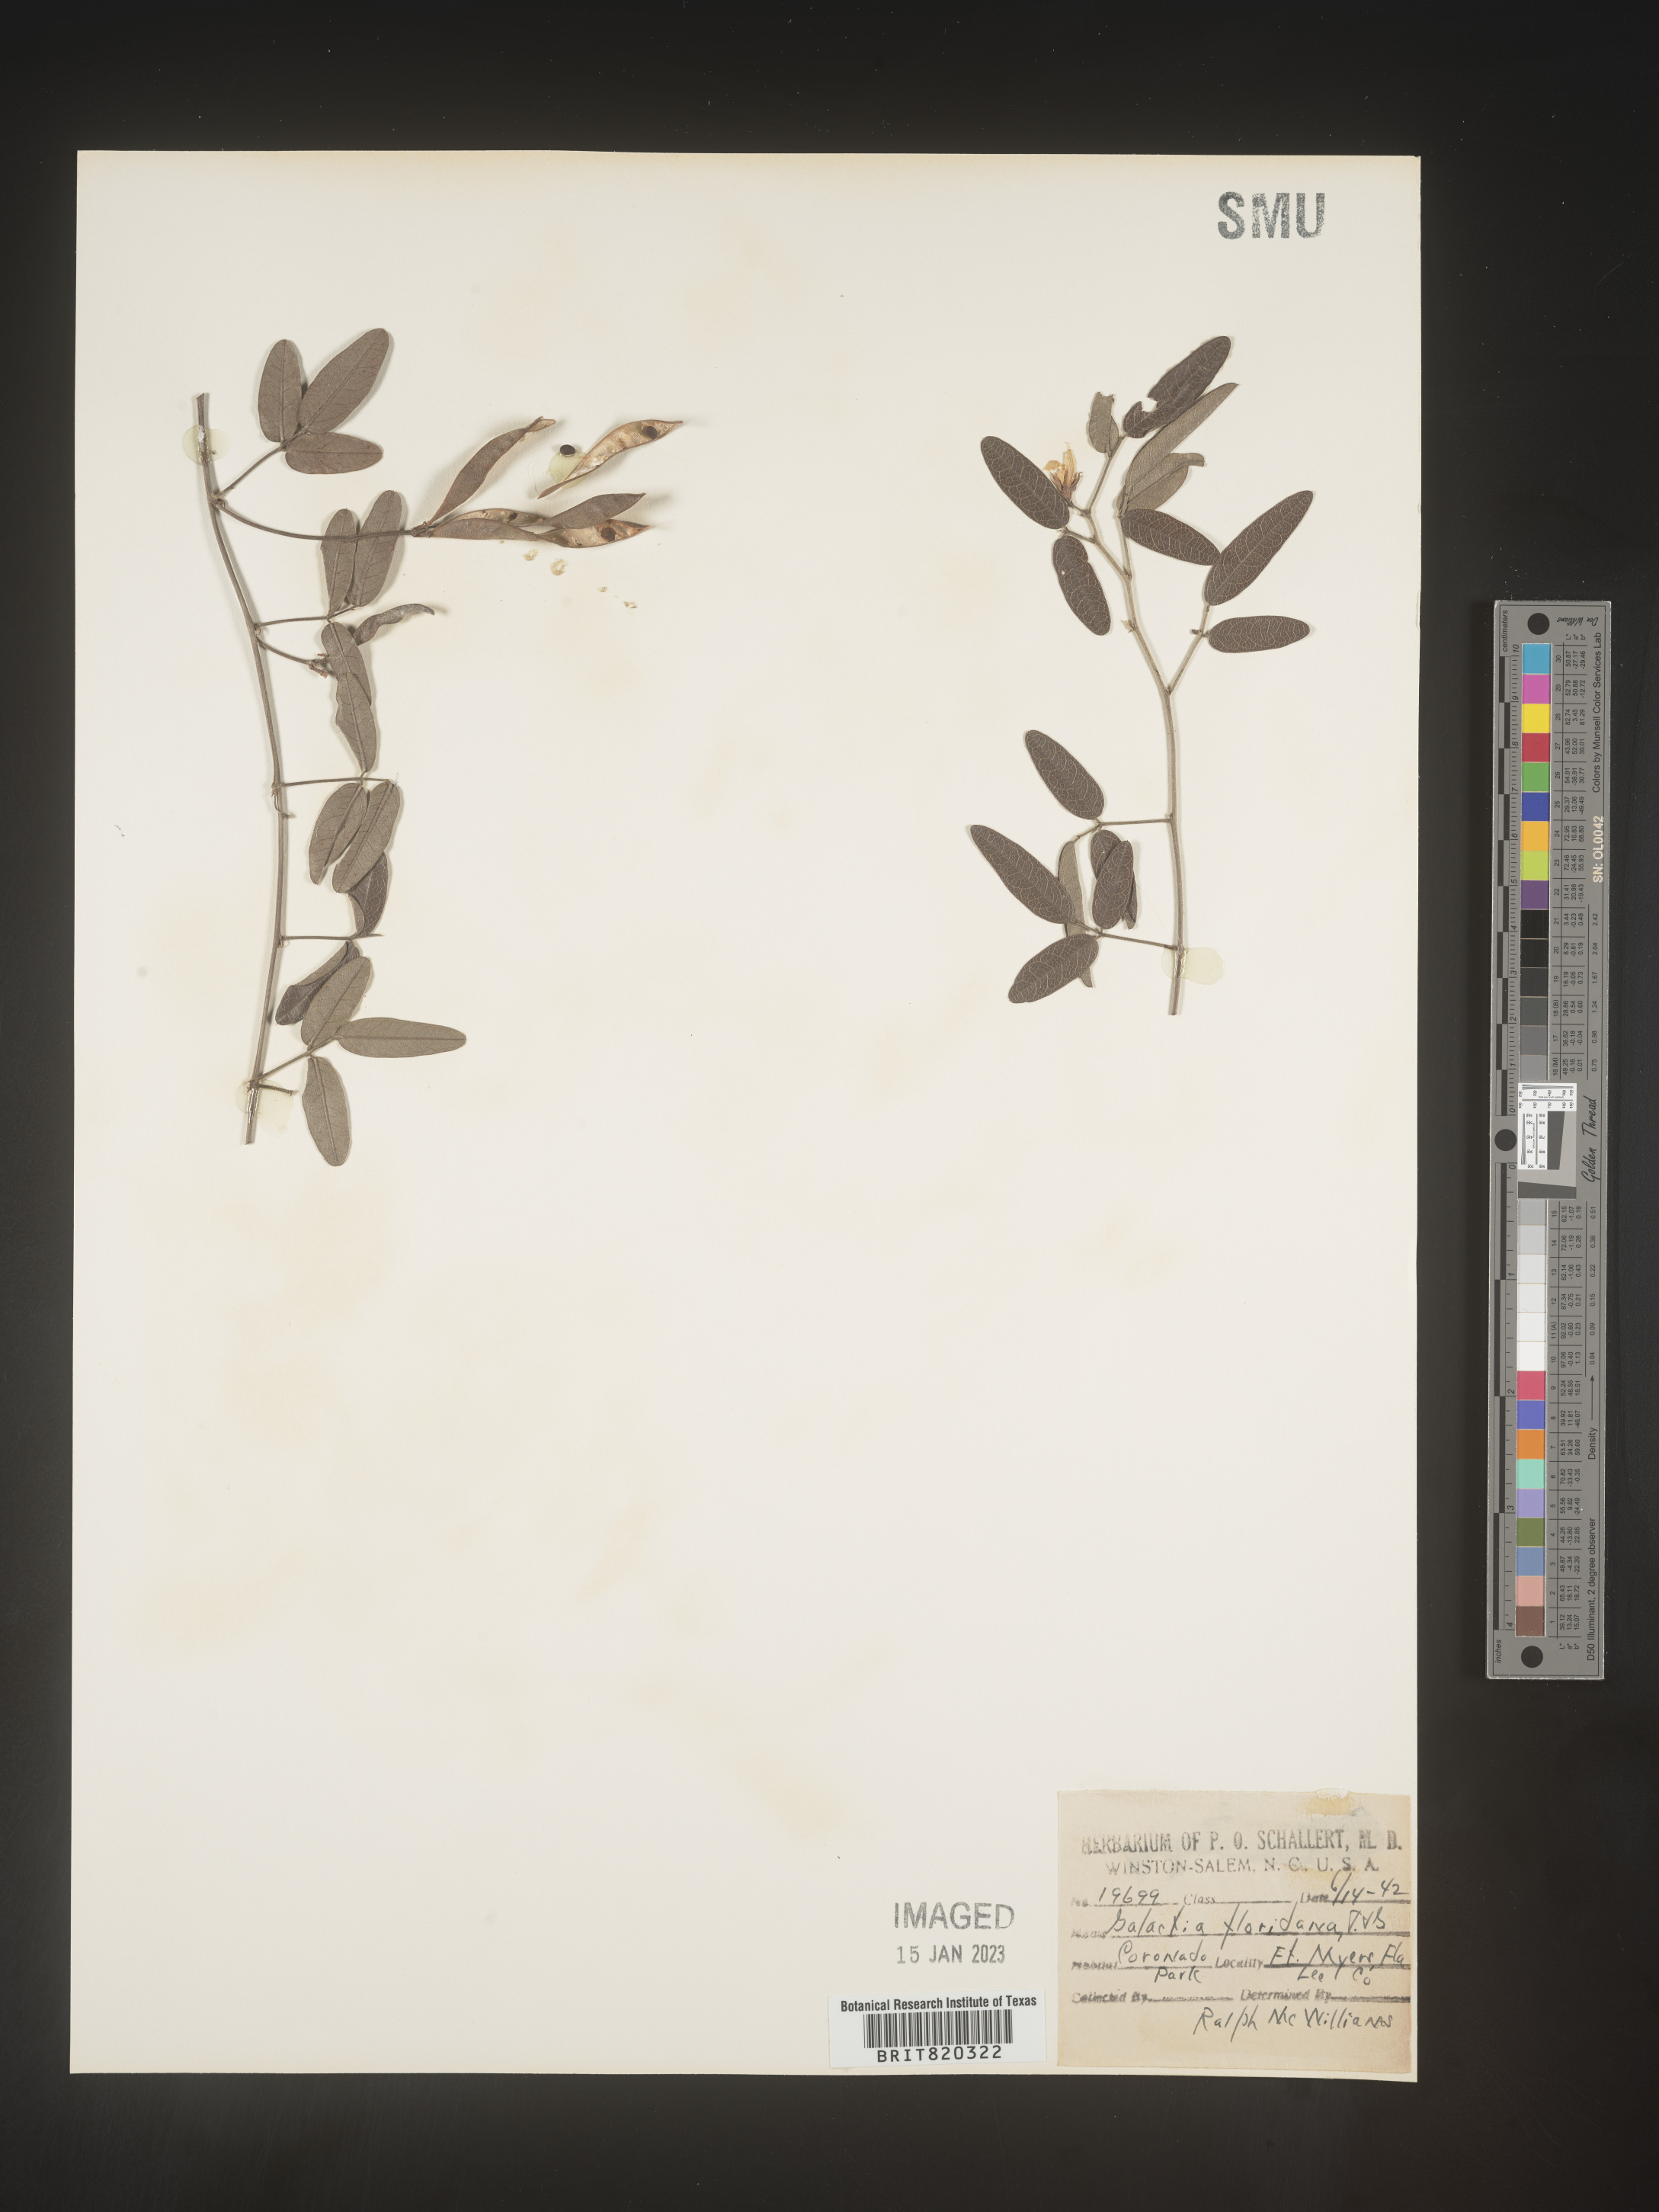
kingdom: Plantae
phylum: Tracheophyta
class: Magnoliopsida
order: Fabales
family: Fabaceae
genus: Galactia
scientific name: Galactia regularis
